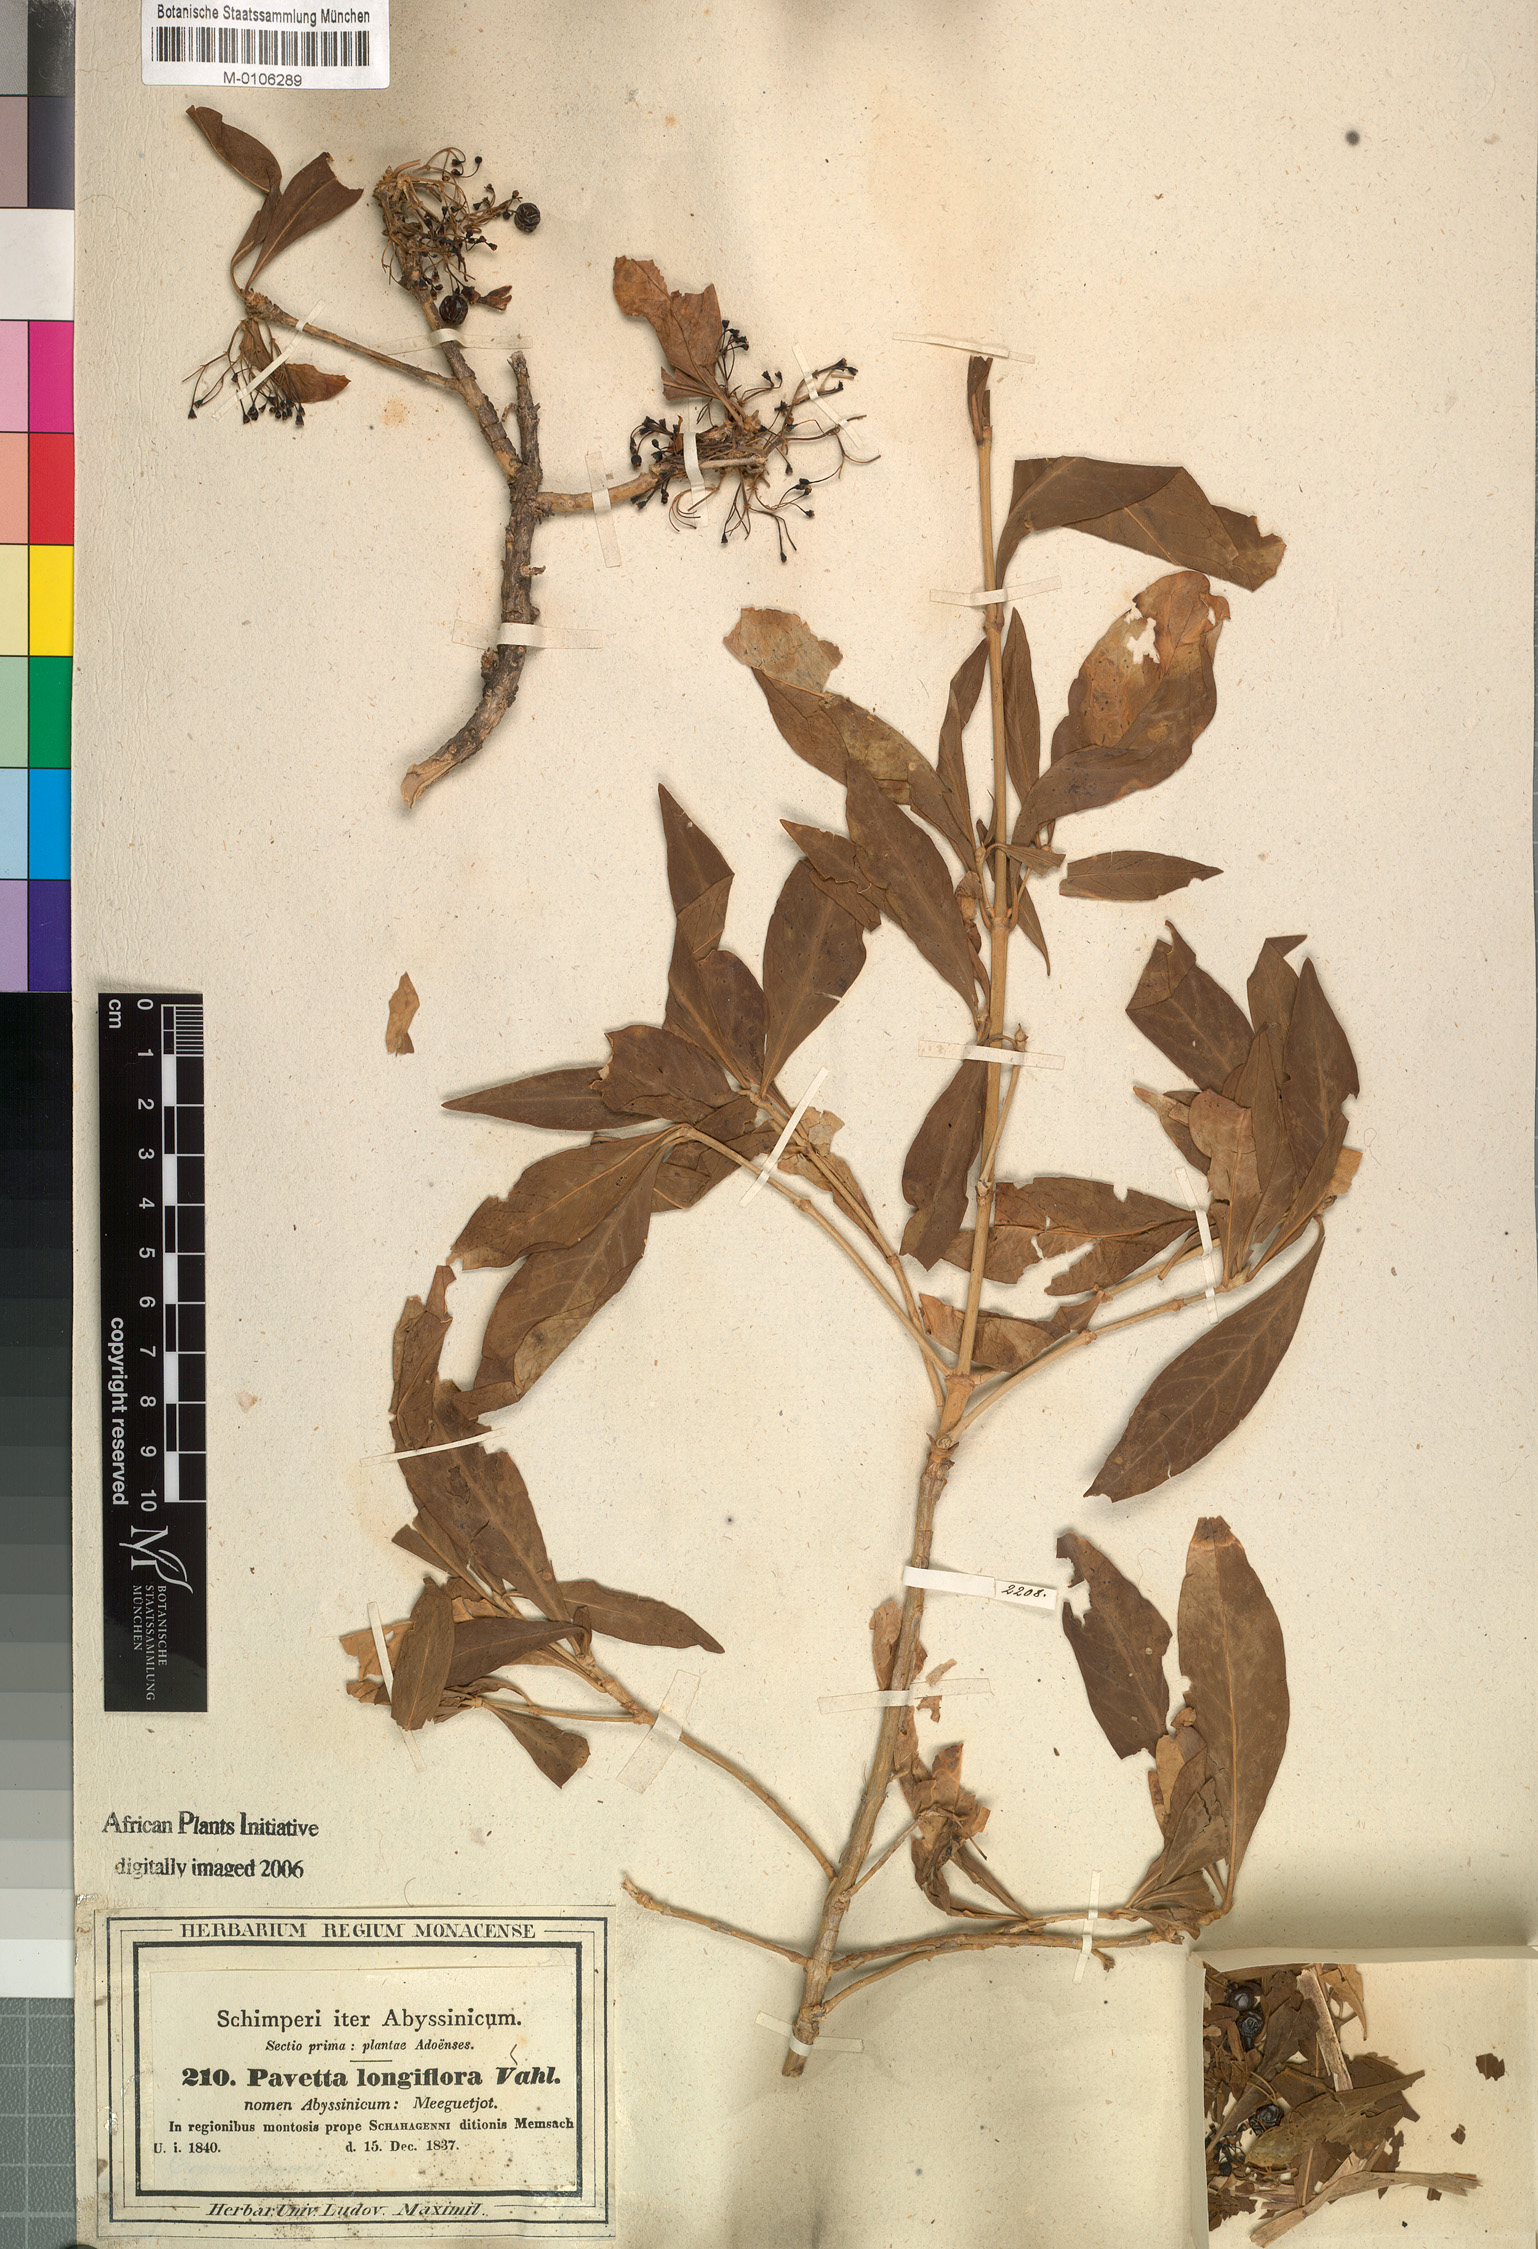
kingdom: Plantae
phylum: Tracheophyta
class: Magnoliopsida
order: Gentianales
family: Rubiaceae
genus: Pavetta
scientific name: Pavetta gardeniifolia
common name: Common brides-bush
